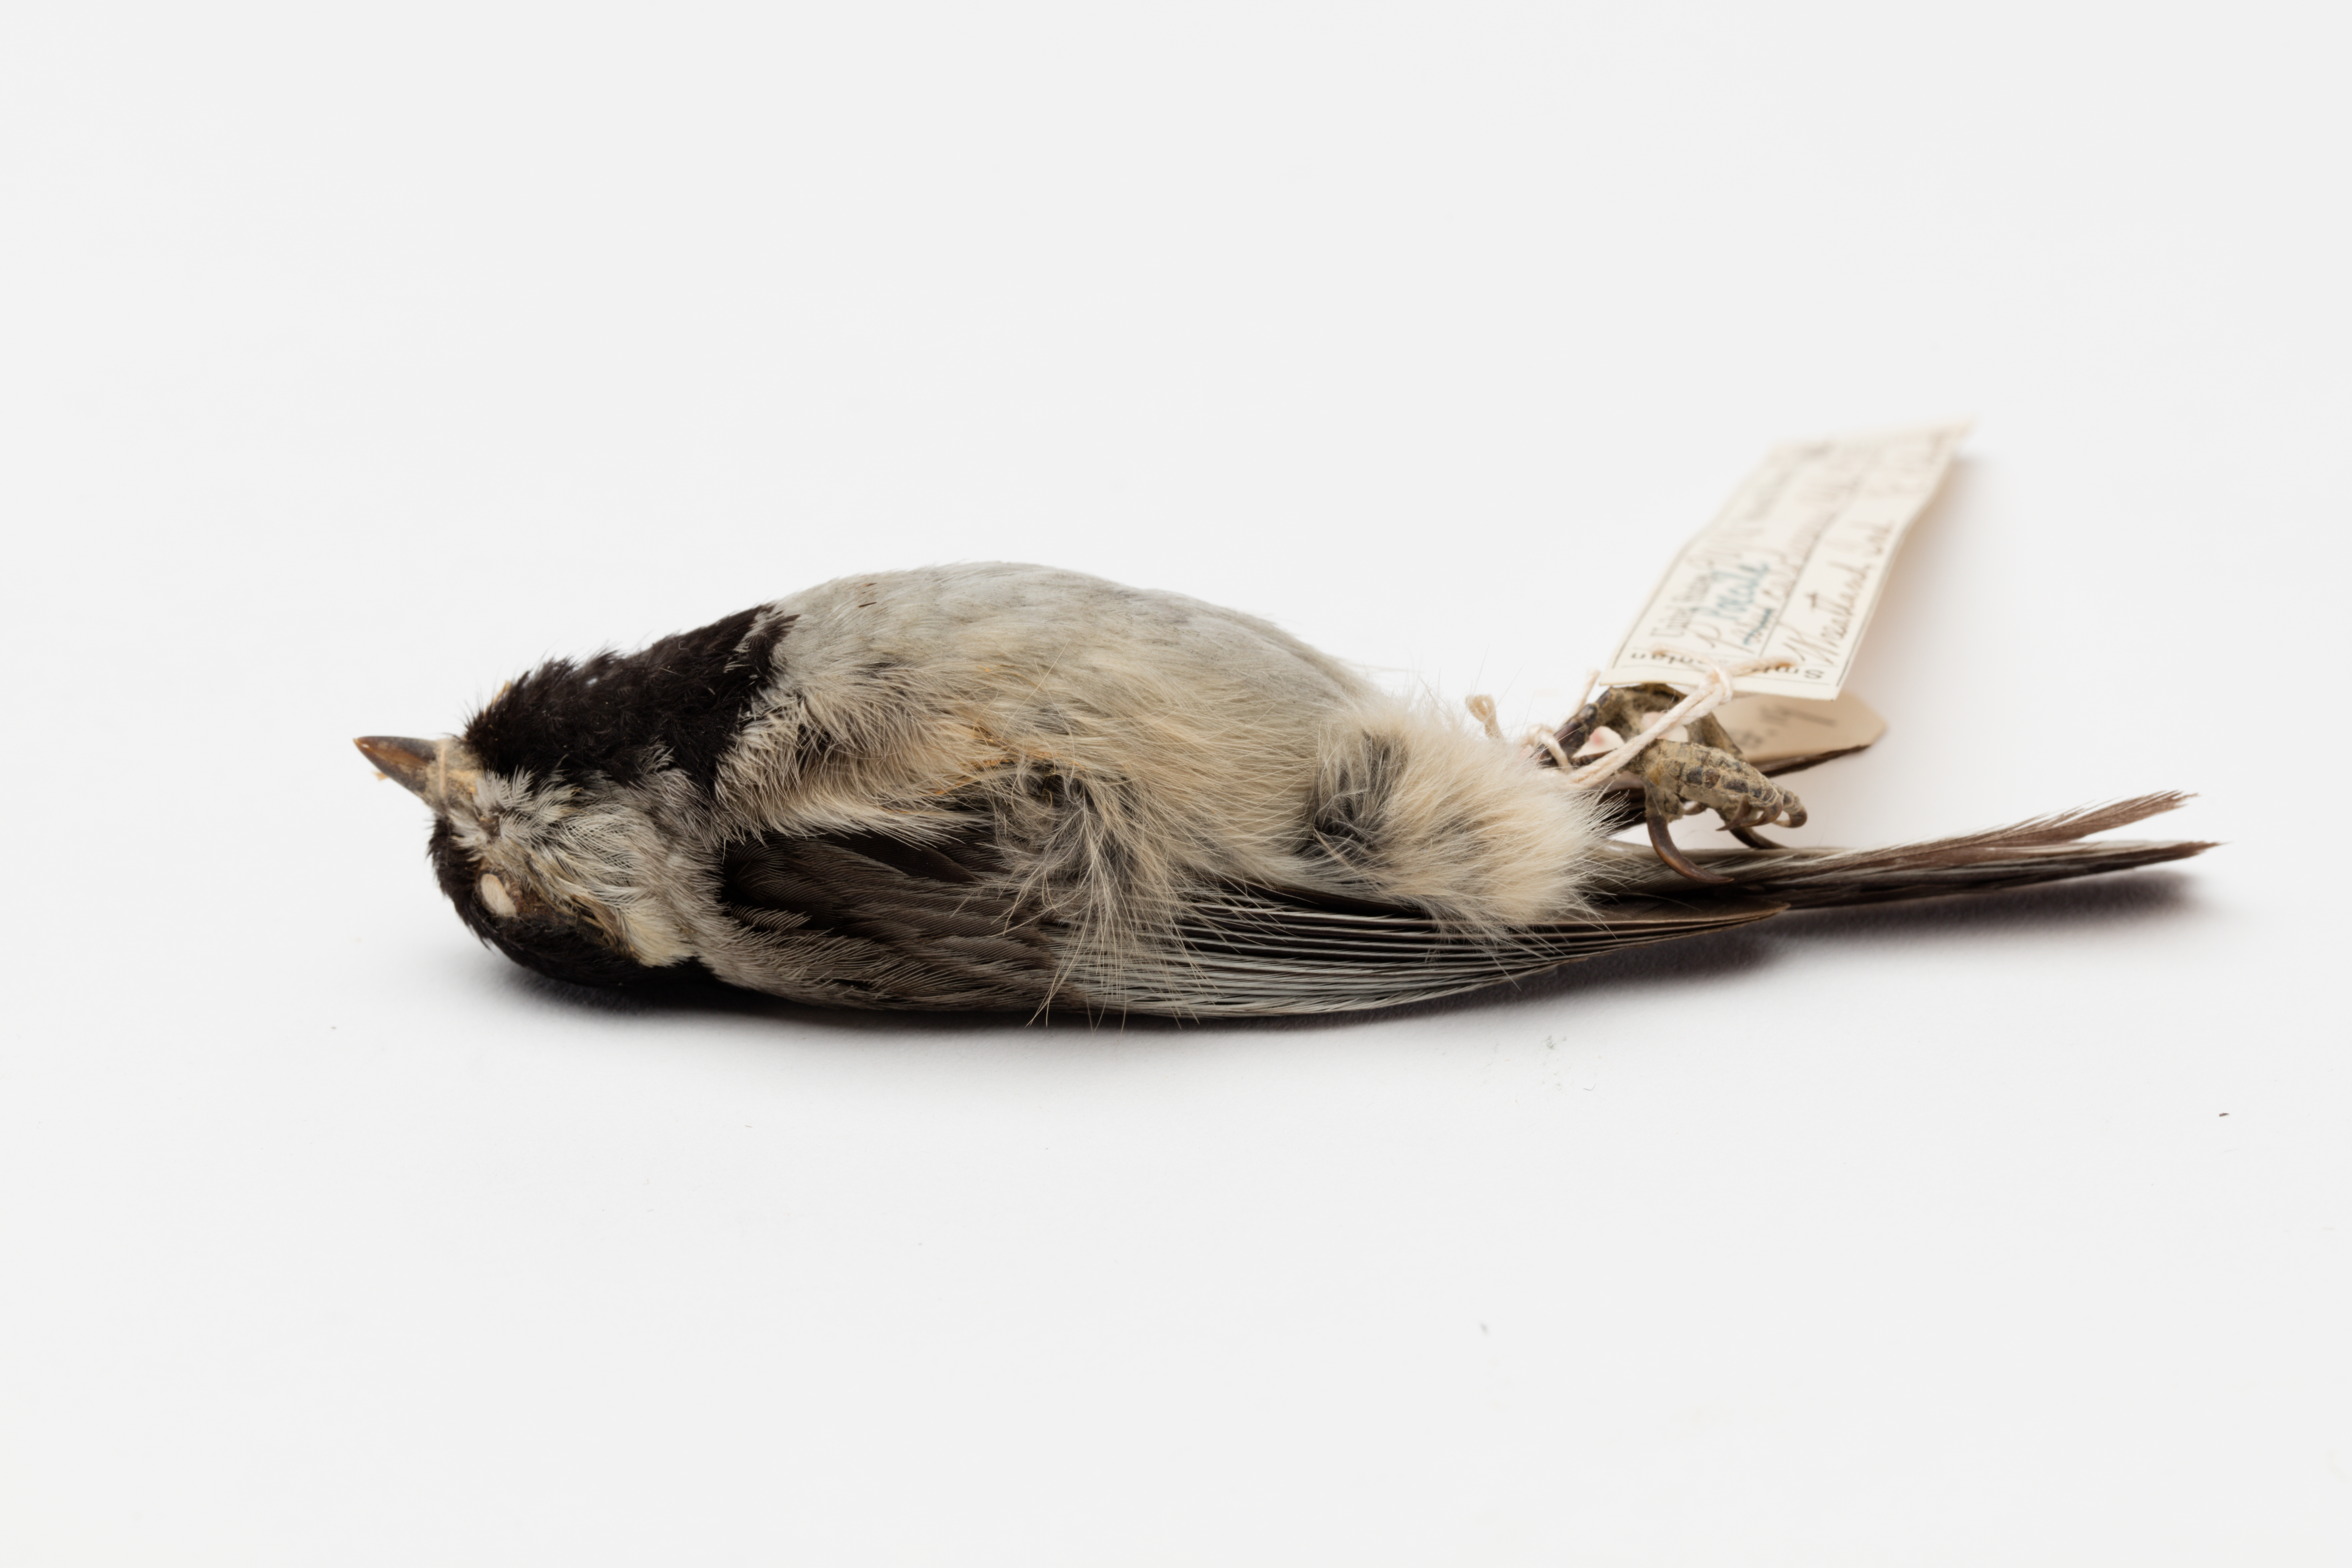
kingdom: Animalia
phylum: Chordata
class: Aves
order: Passeriformes
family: Paridae
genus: Poecile
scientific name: Poecile carolinensis
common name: Carolina chickadee
